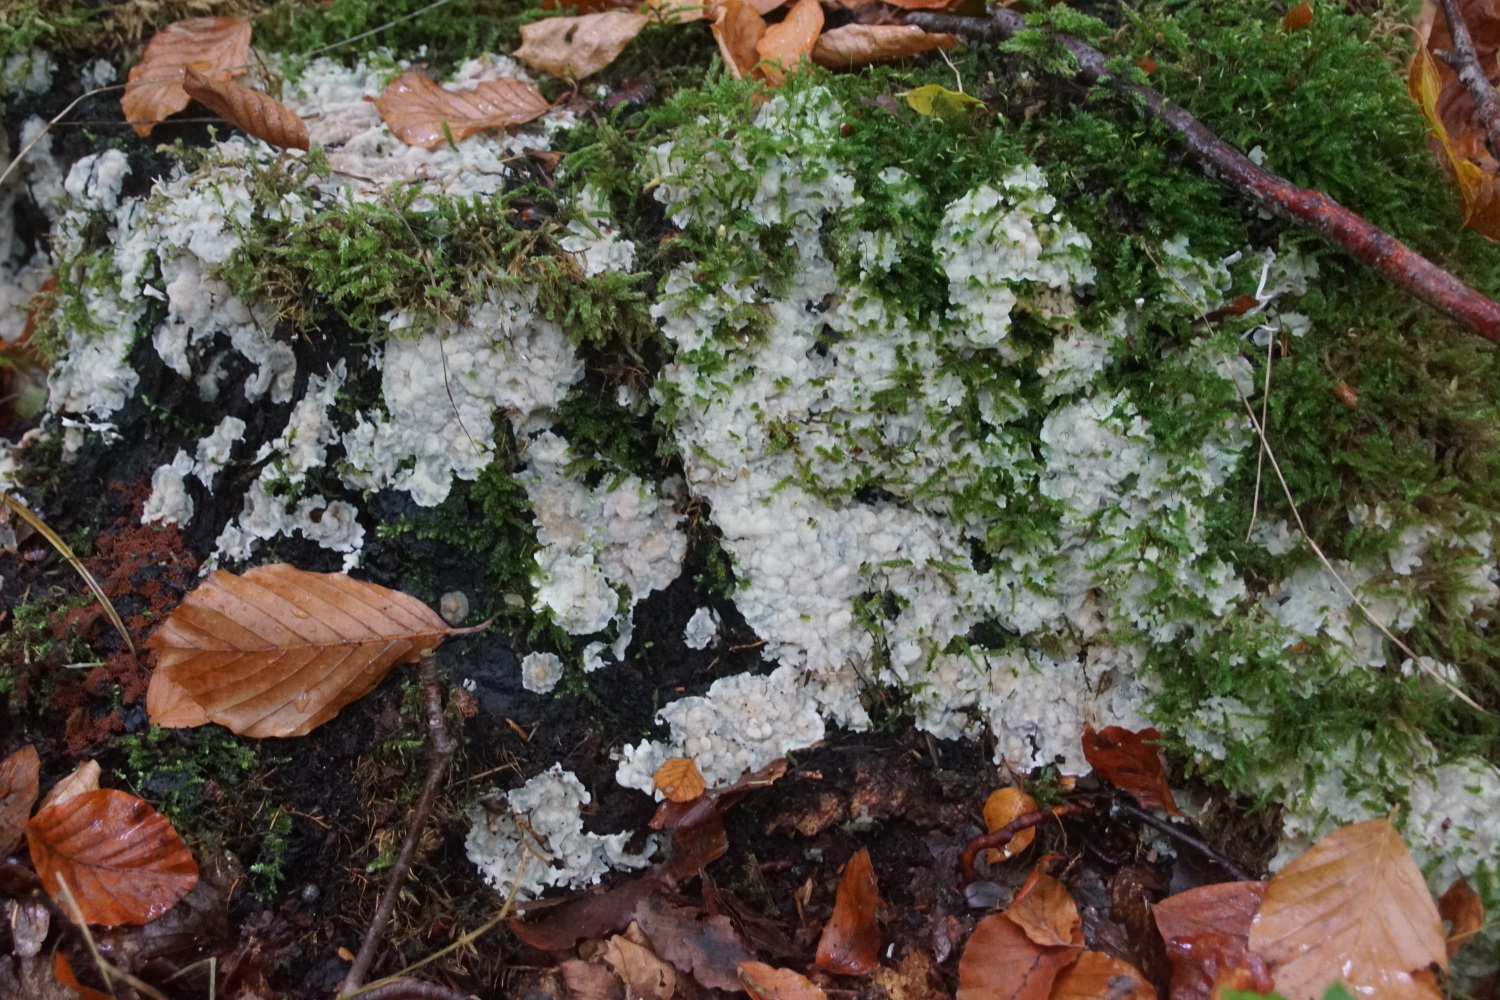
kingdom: Fungi
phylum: Basidiomycota
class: Agaricomycetes
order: Polyporales
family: Meruliaceae
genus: Physisporinus
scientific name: Physisporinus vitreus
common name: mastesvamp
